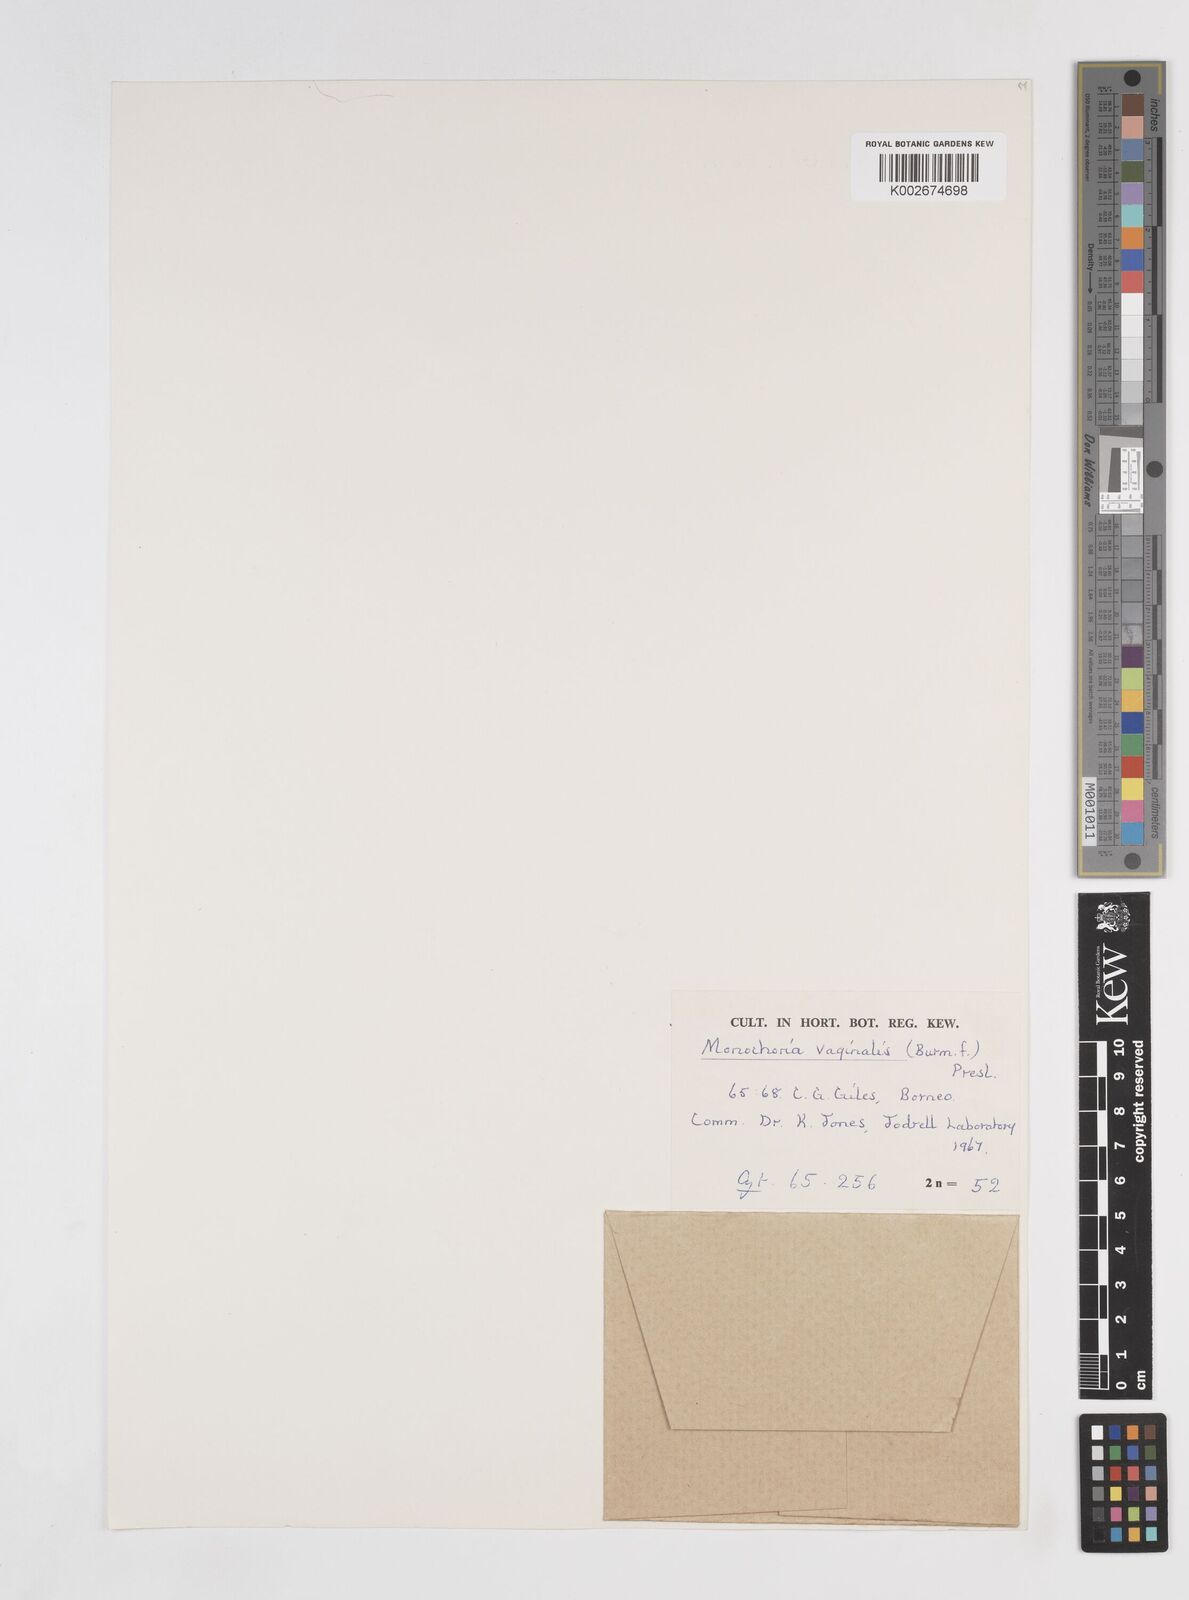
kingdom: Plantae
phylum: Tracheophyta
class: Liliopsida
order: Commelinales
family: Pontederiaceae
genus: Pontederia
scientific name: Pontederia vaginalis
